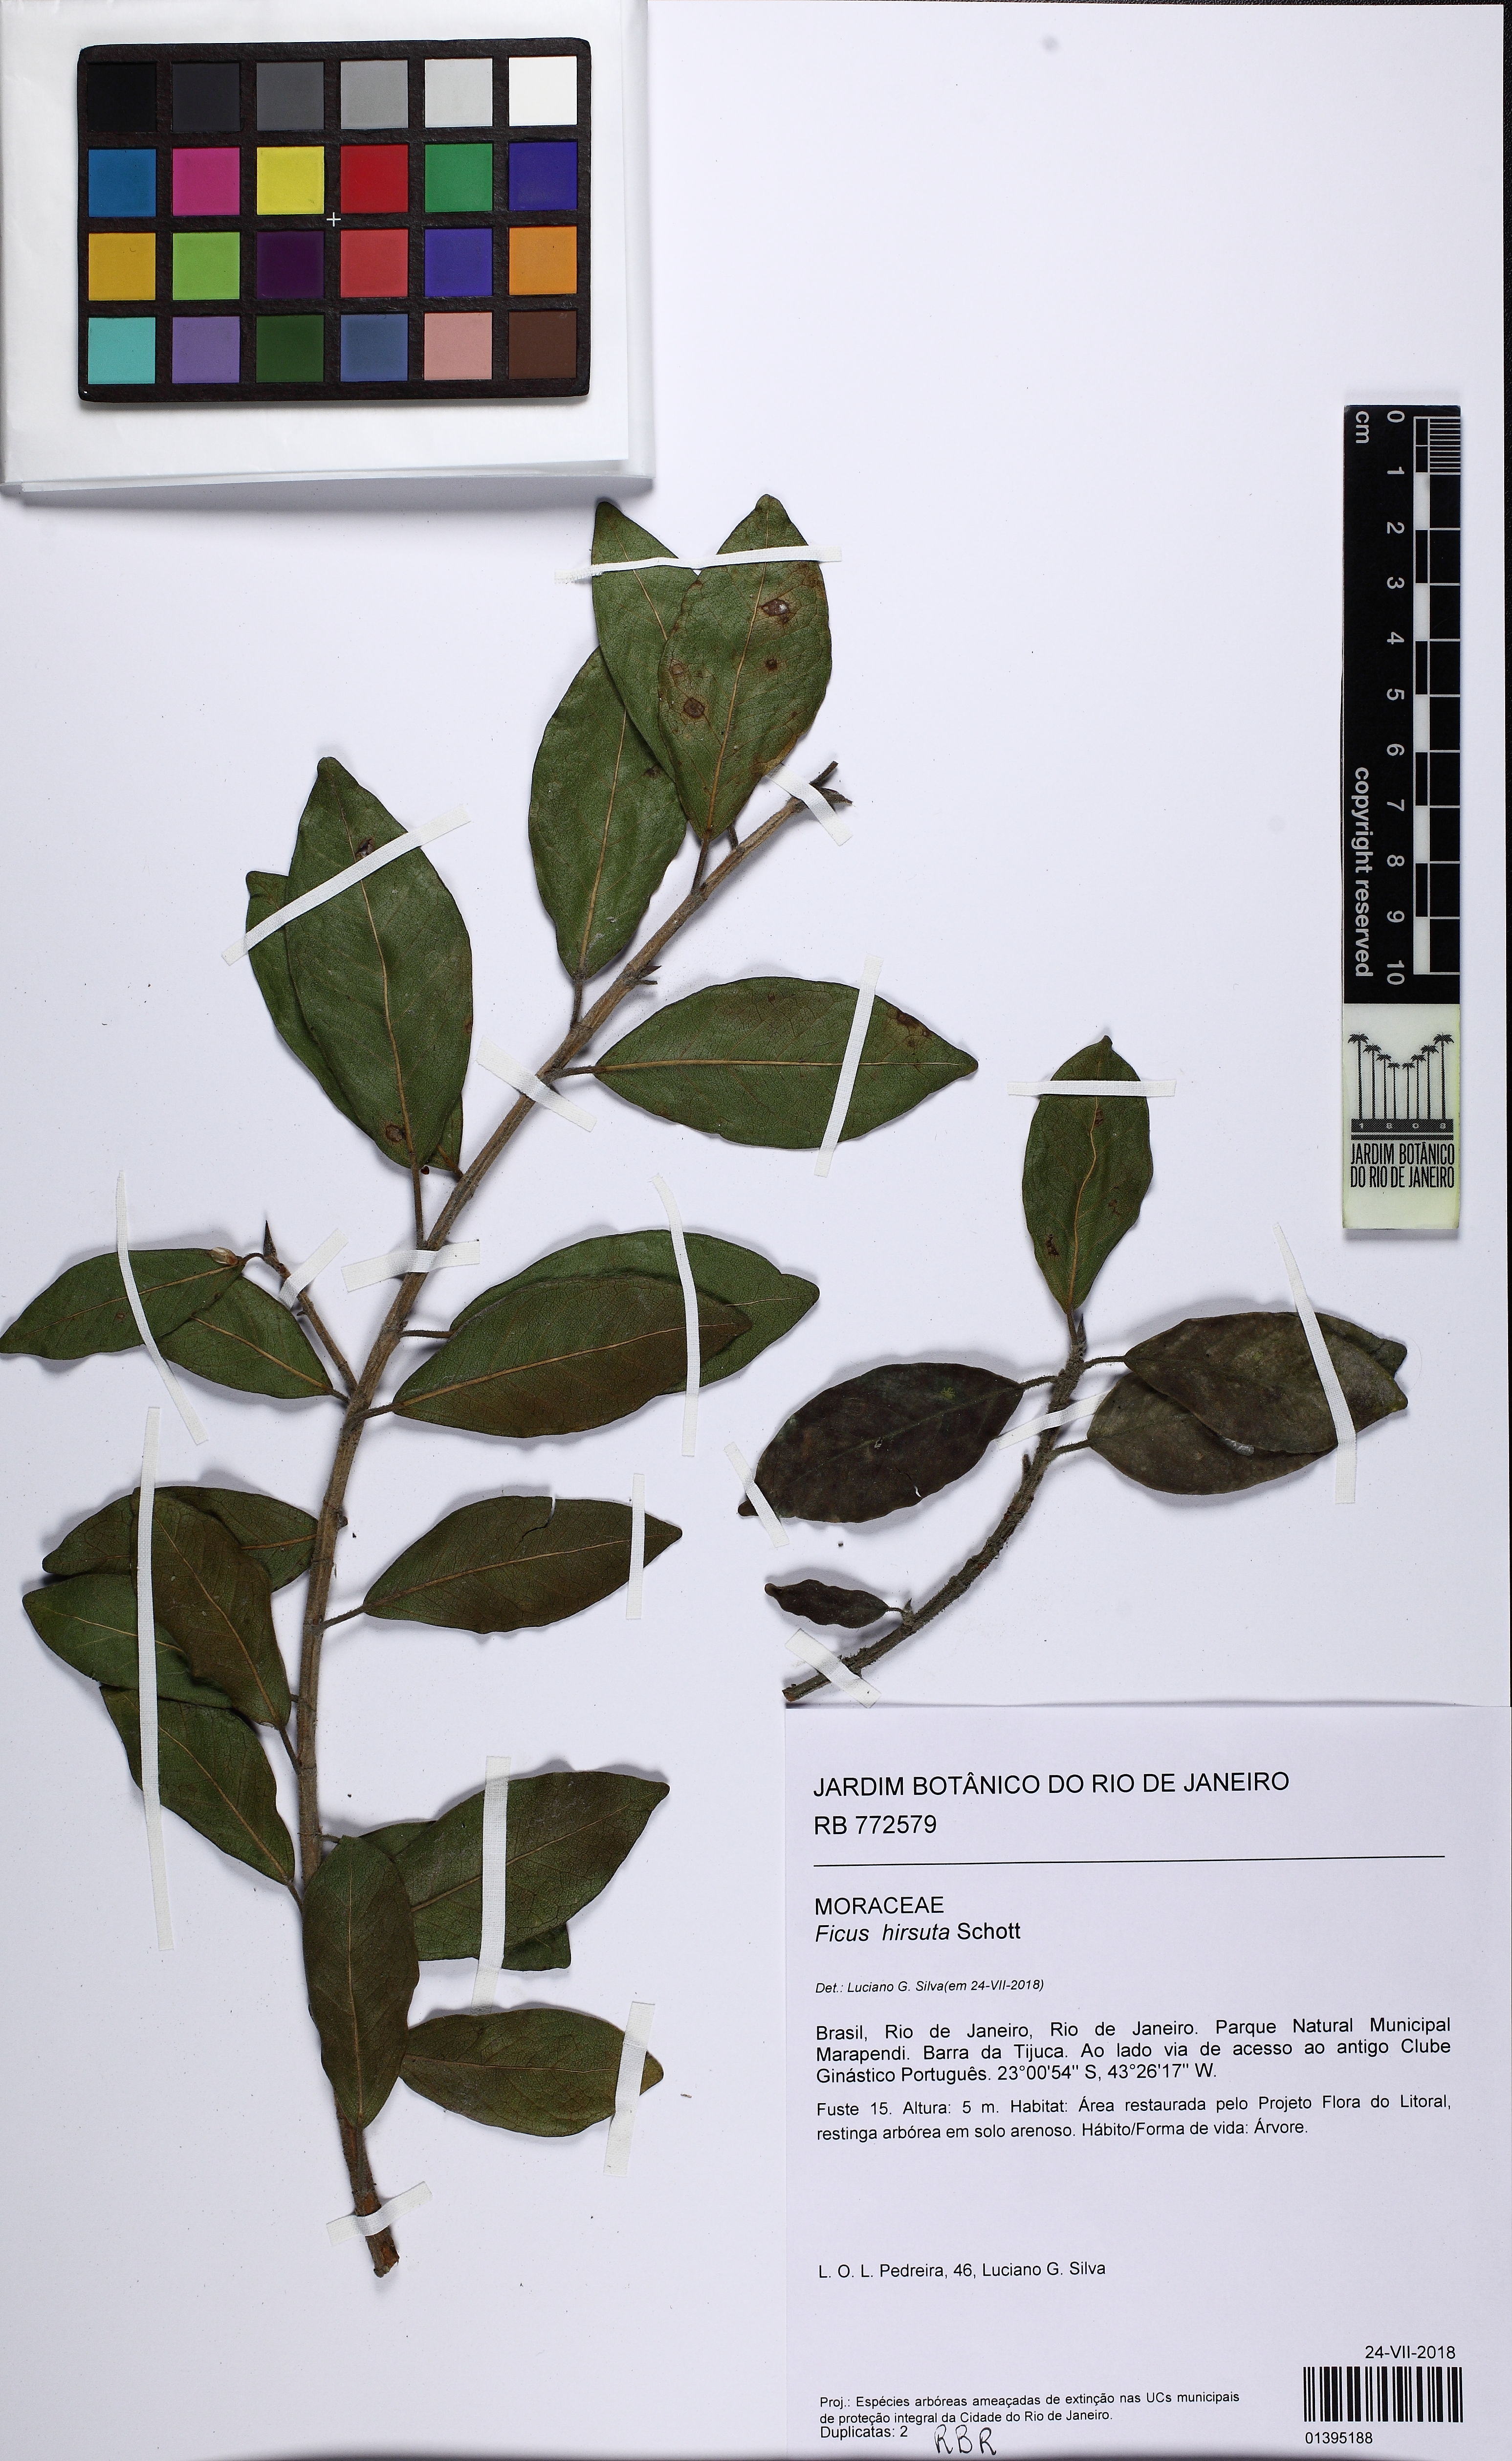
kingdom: Plantae
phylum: Tracheophyta
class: Magnoliopsida
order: Rosales
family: Moraceae
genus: Ficus
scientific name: Ficus hirsuta
